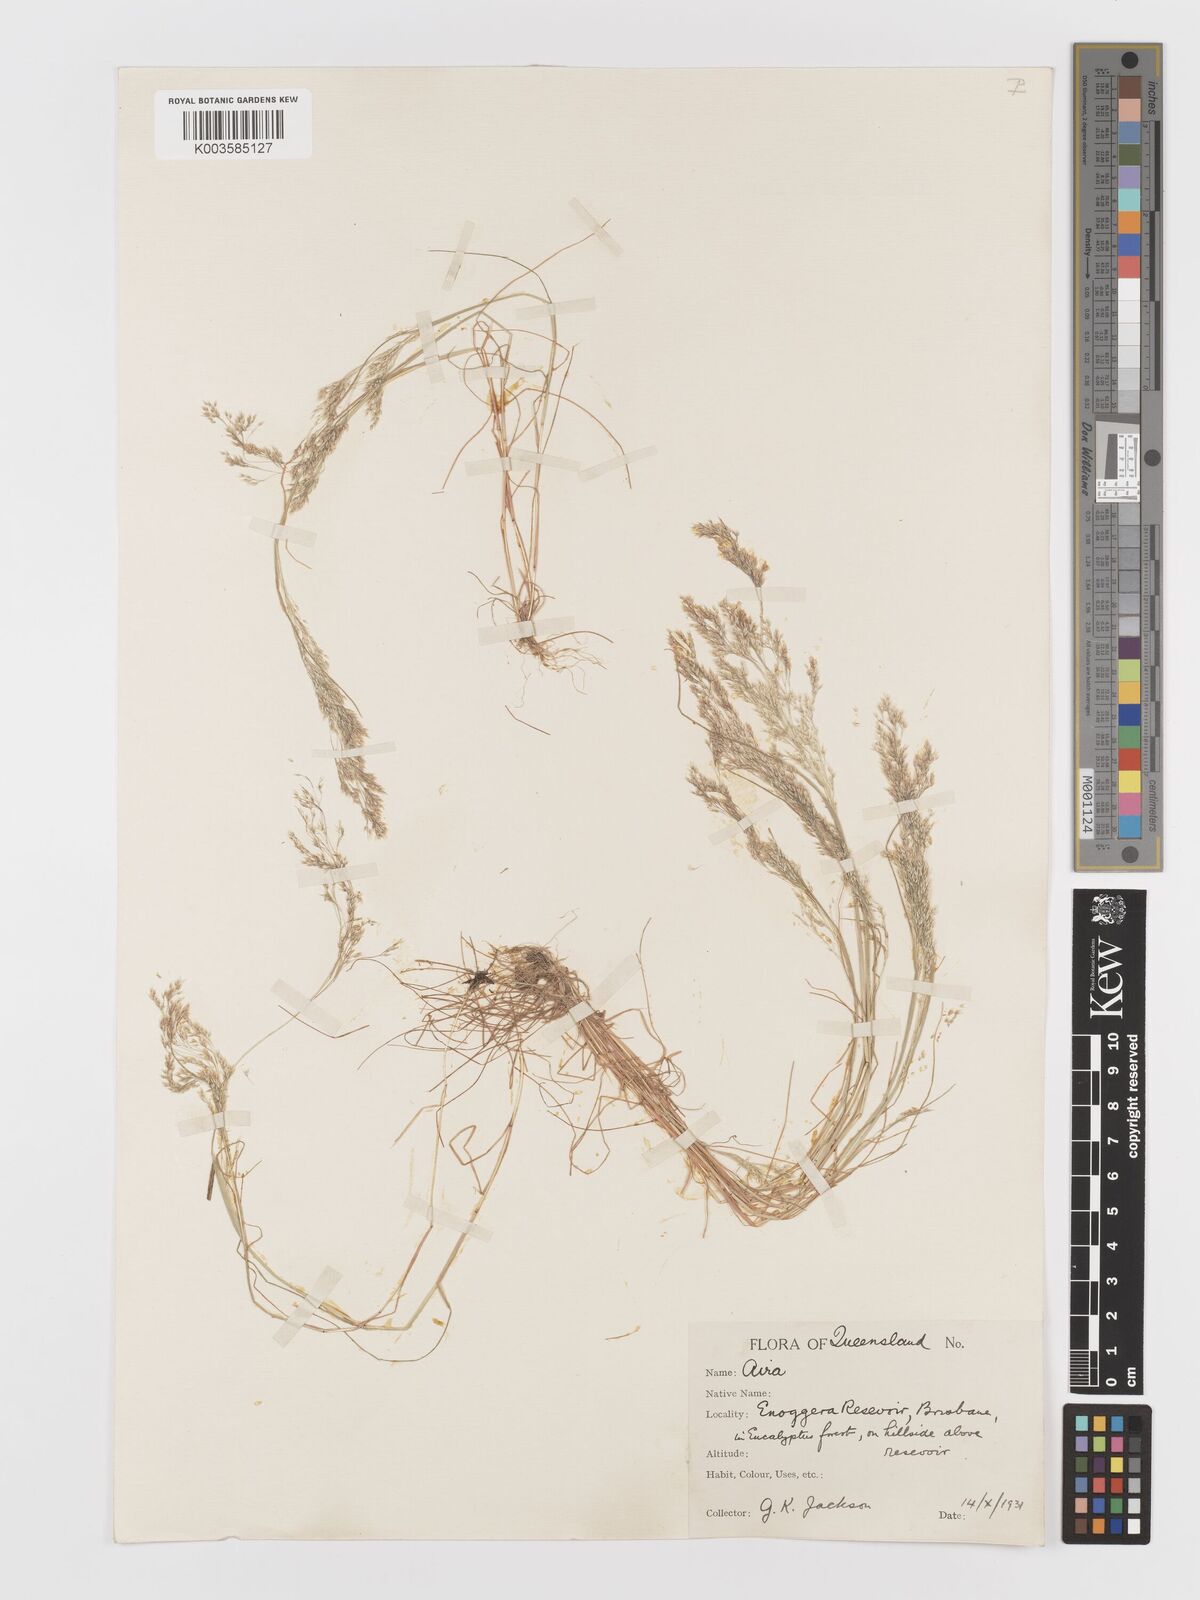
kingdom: Plantae
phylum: Tracheophyta
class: Liliopsida
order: Poales
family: Poaceae
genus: Aira
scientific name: Aira cupaniana
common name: Silver hairgrass
